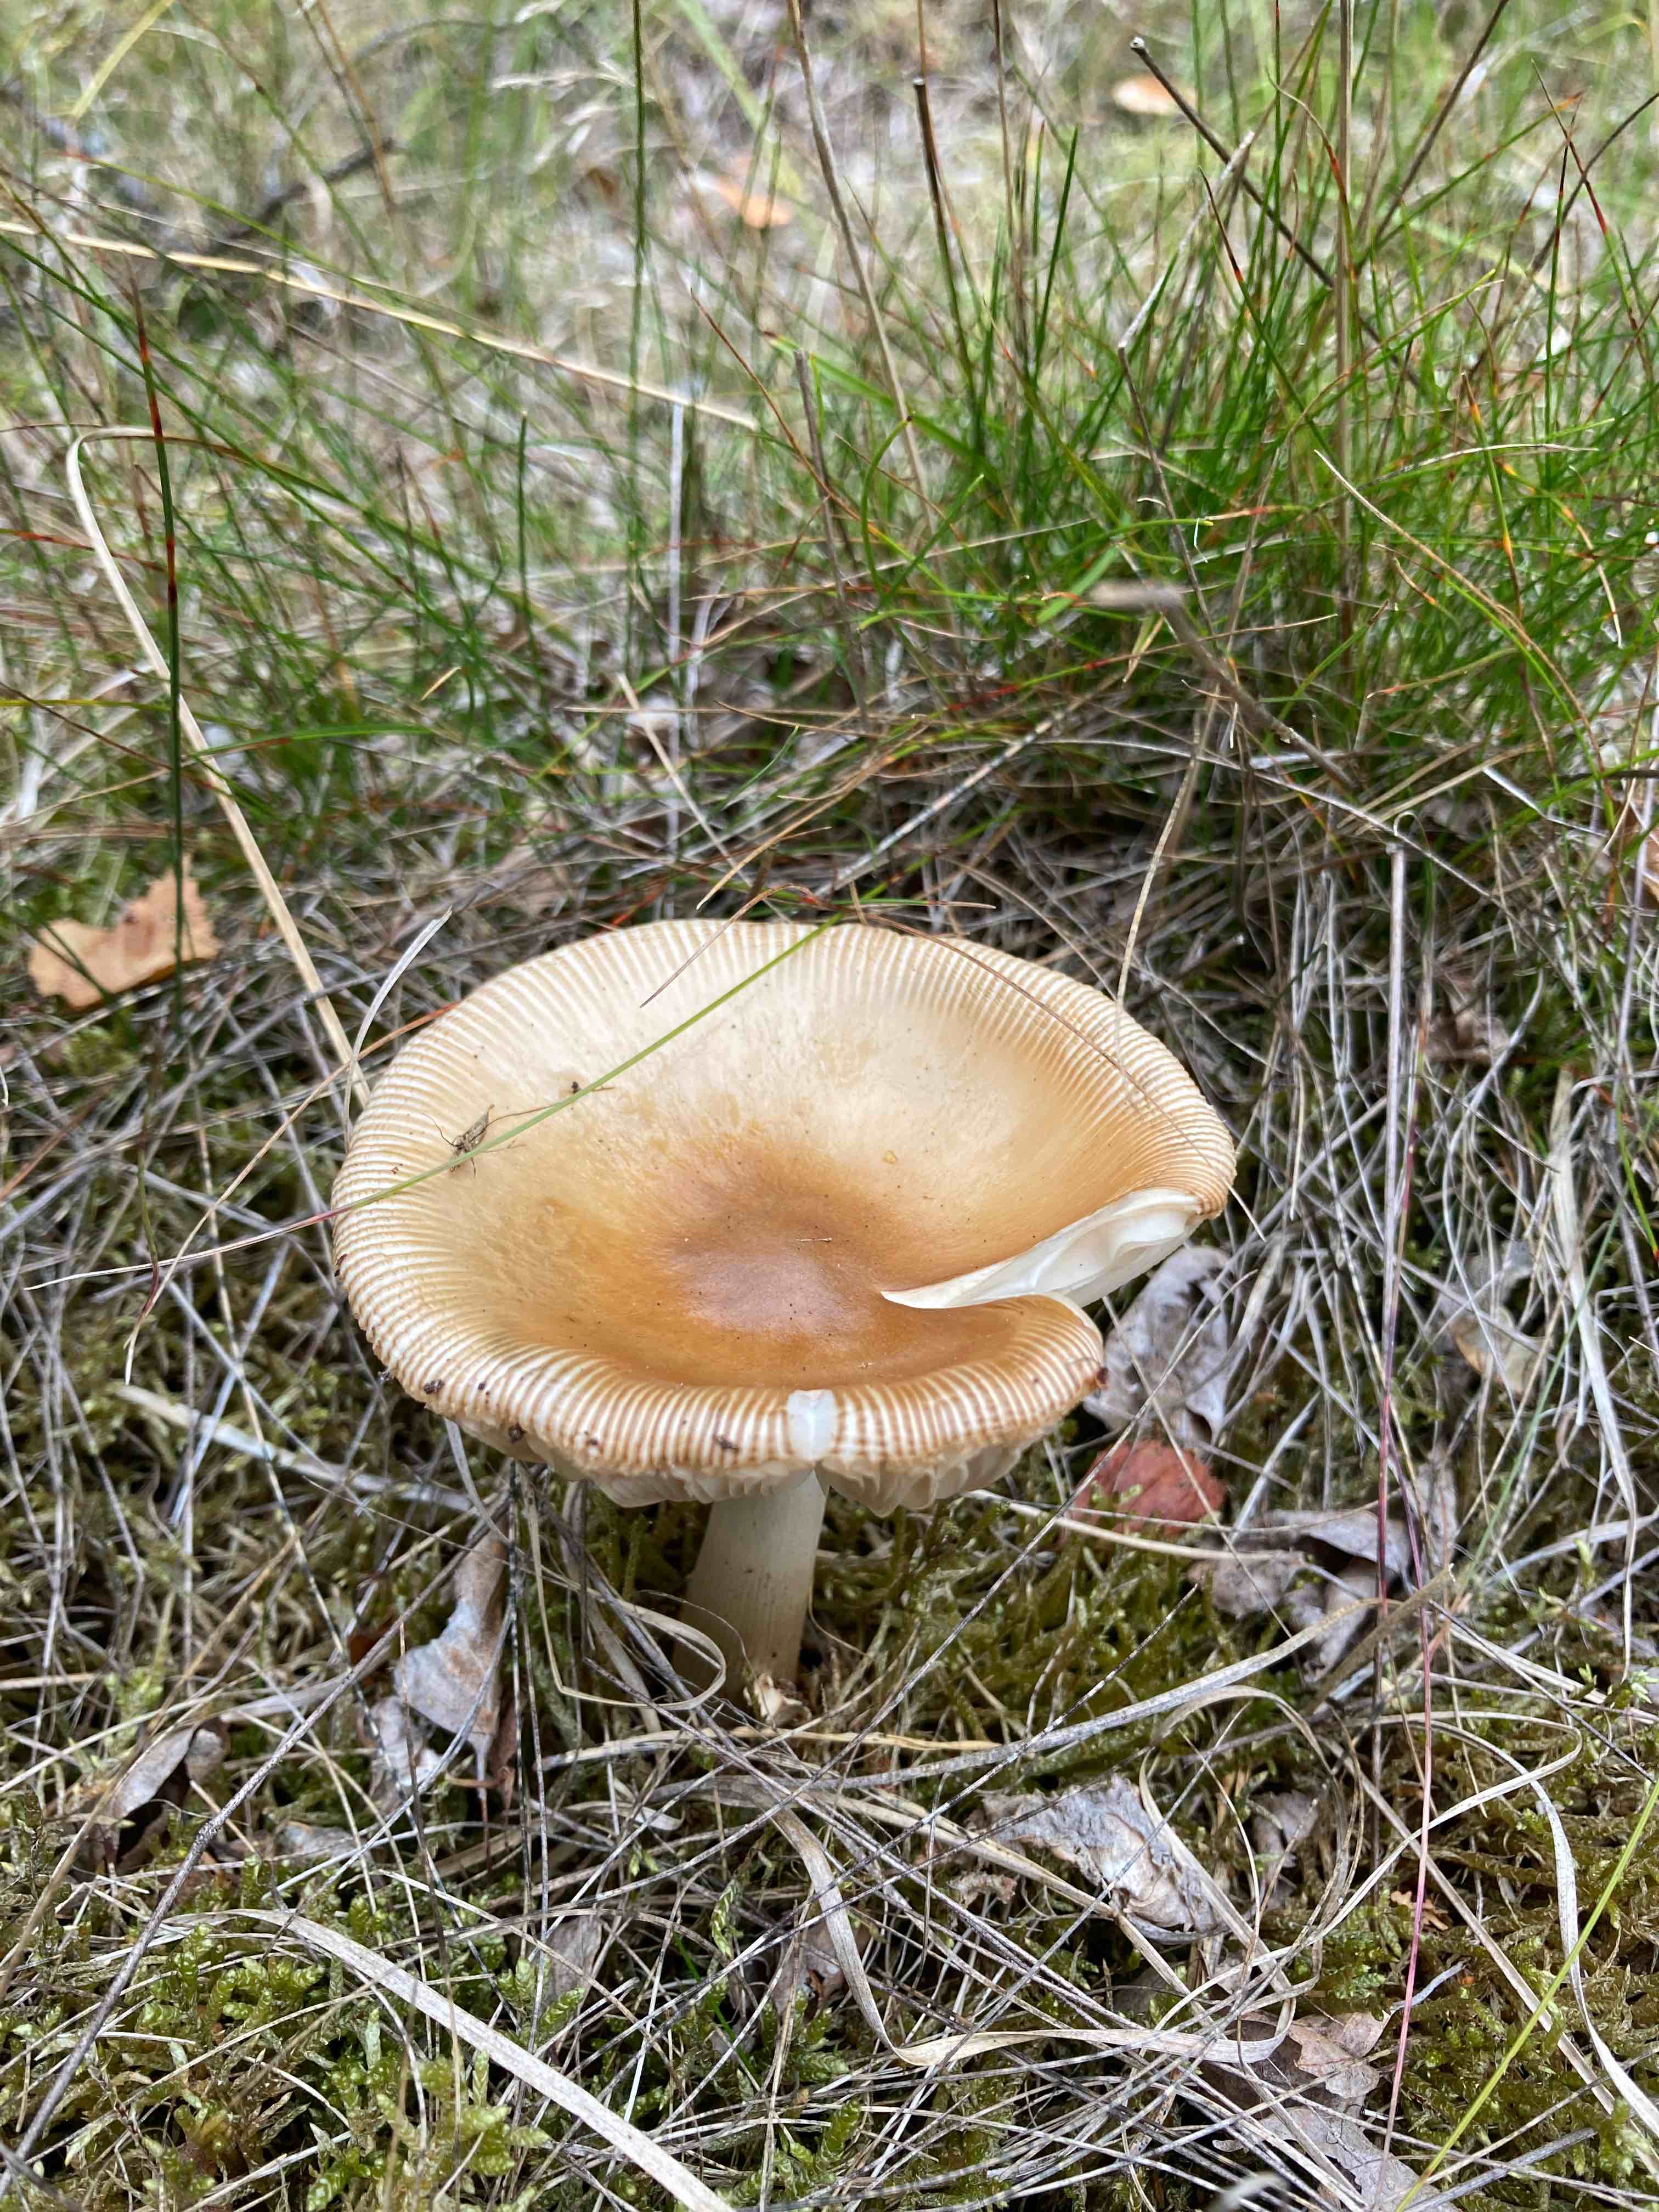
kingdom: Fungi
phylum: Basidiomycota
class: Agaricomycetes
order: Agaricales
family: Amanitaceae
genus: Amanita
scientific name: Amanita fulva
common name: brun kam-fluesvamp
